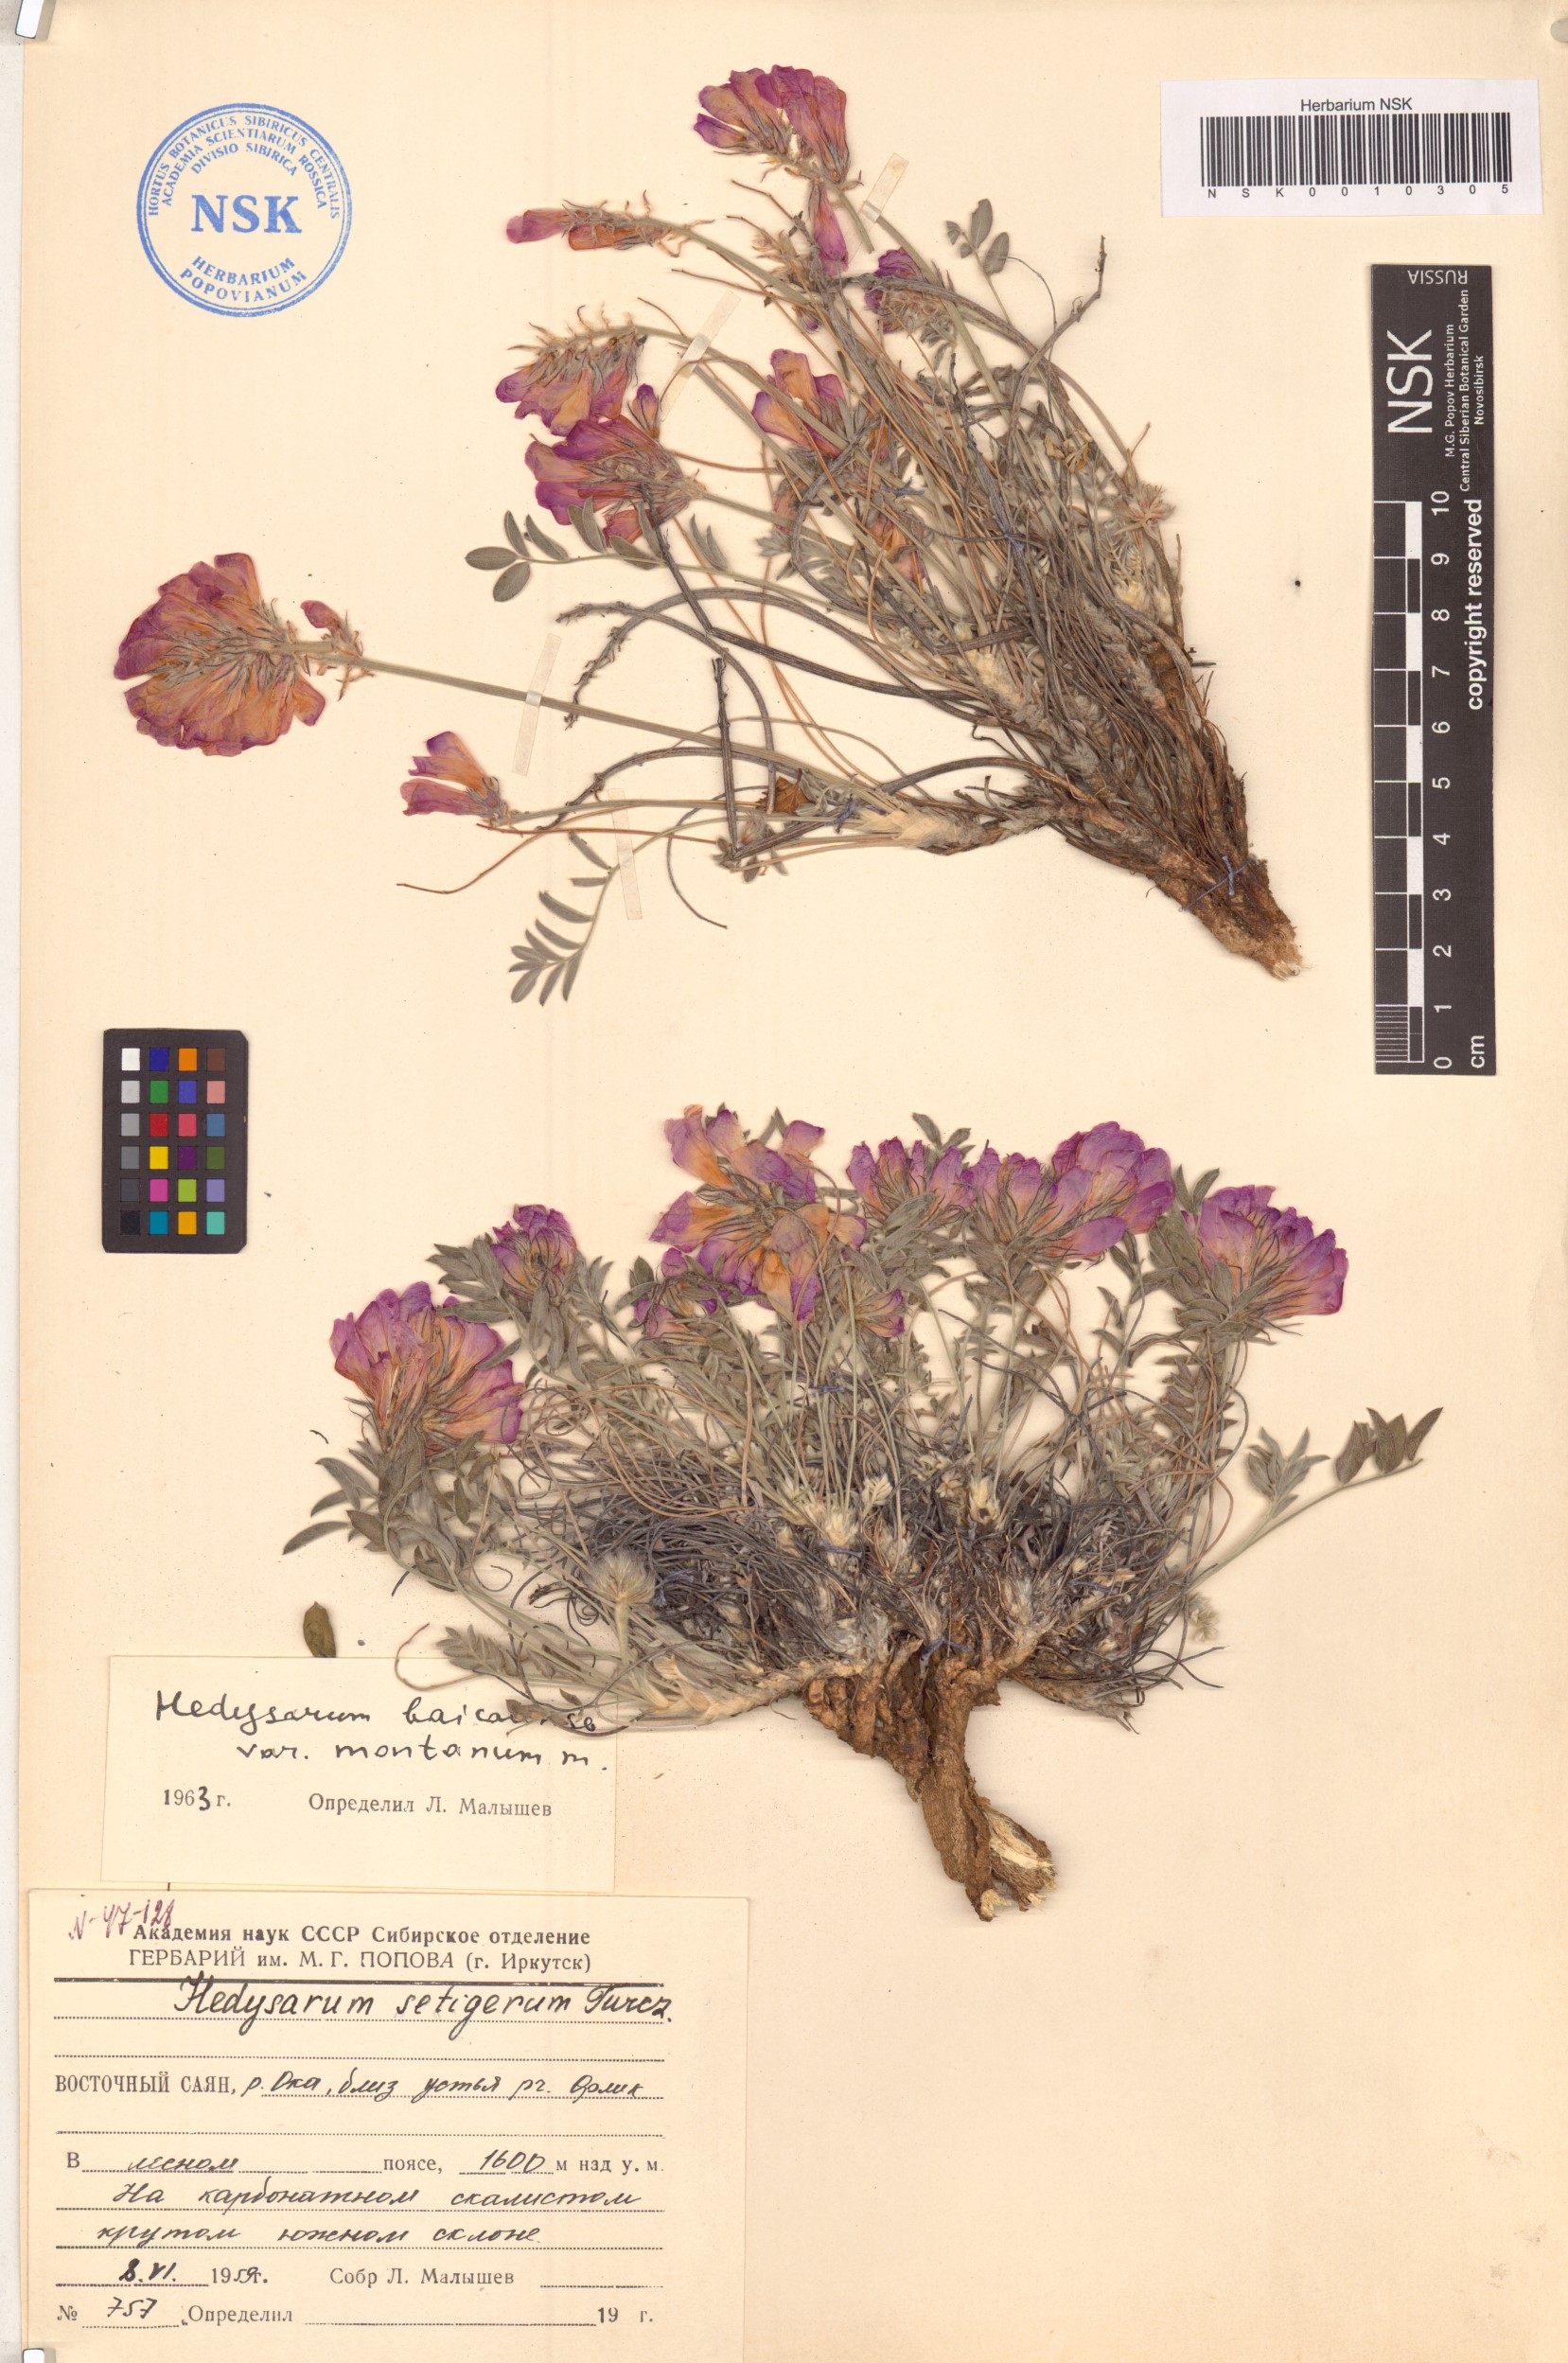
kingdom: Plantae
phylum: Tracheophyta
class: Magnoliopsida
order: Fabales
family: Fabaceae
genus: Hedysarum
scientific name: Hedysarum baicalense
